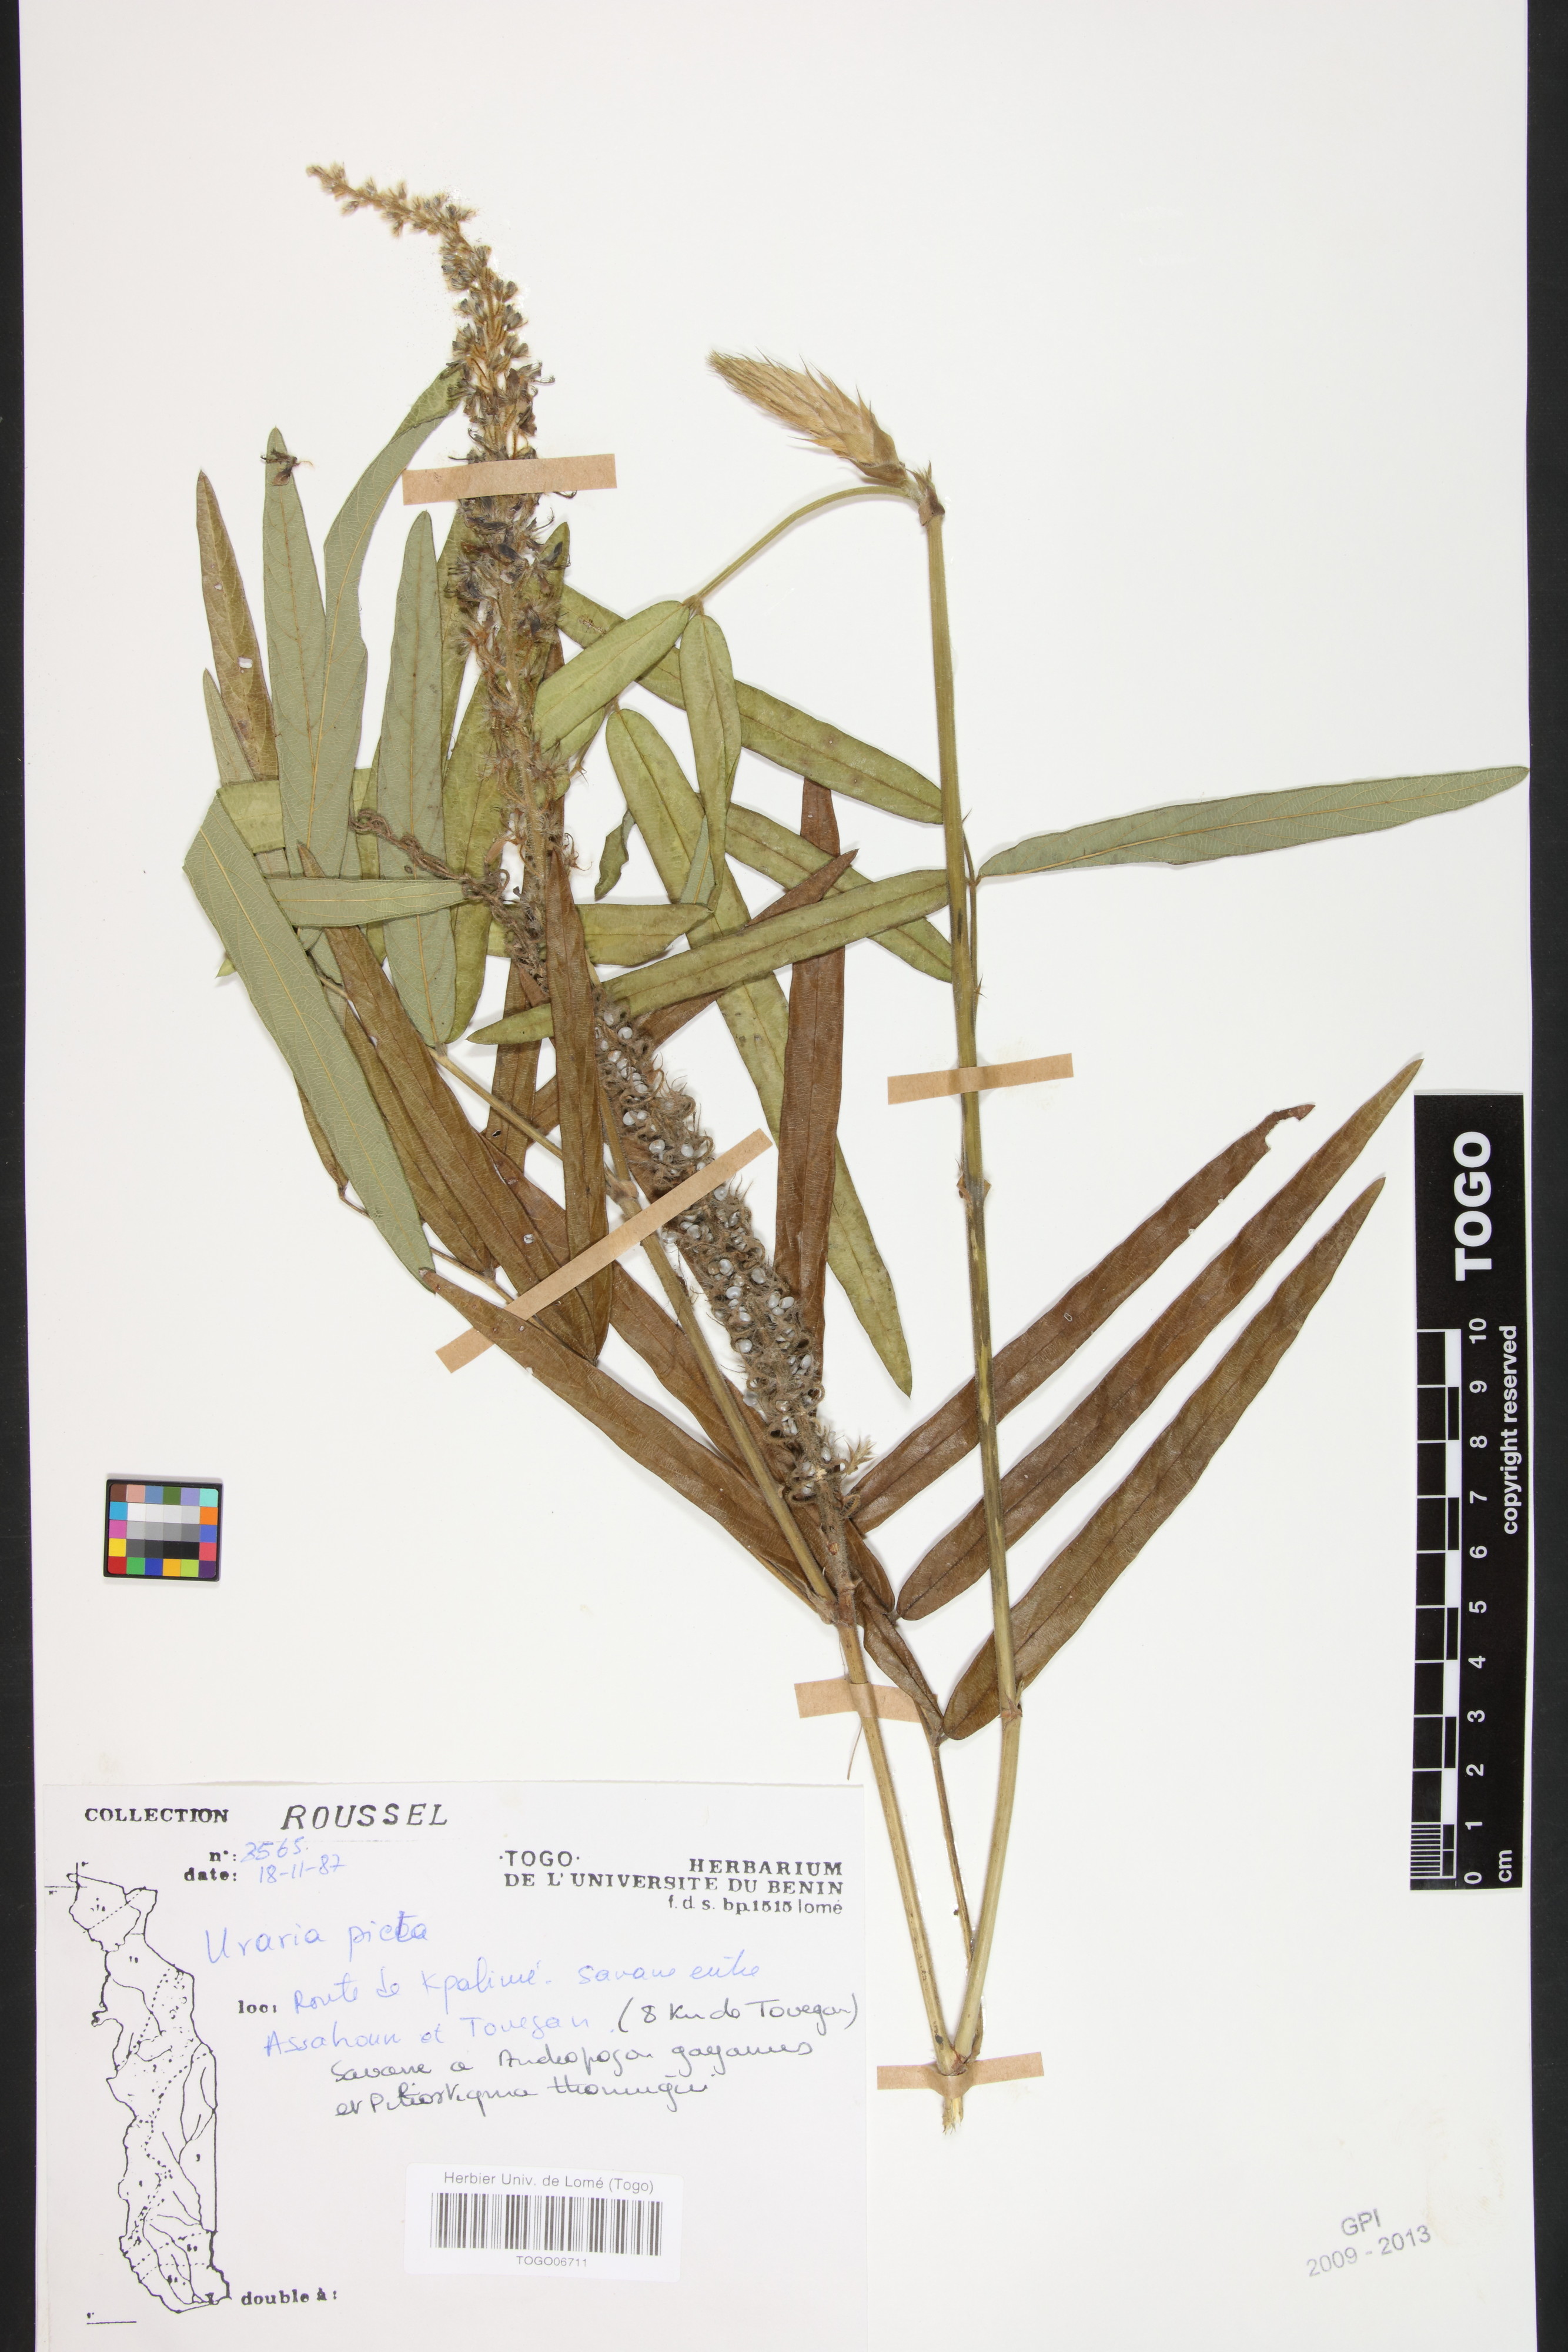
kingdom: Plantae
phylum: Tracheophyta
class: Magnoliopsida
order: Fabales
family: Fabaceae
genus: Uraria
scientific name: Uraria picta
